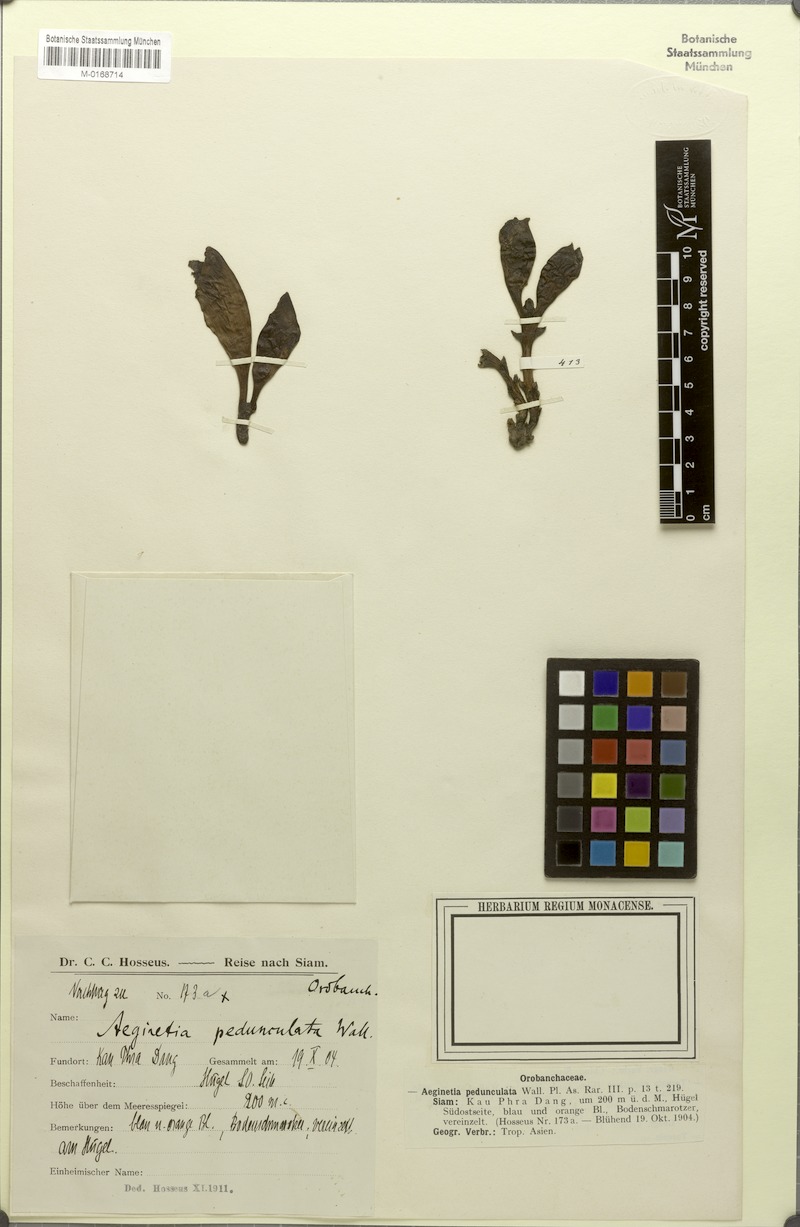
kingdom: Plantae
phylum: Tracheophyta
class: Magnoliopsida
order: Lamiales
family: Orobanchaceae
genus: Aeginetia
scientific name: Aeginetia pedunculata
